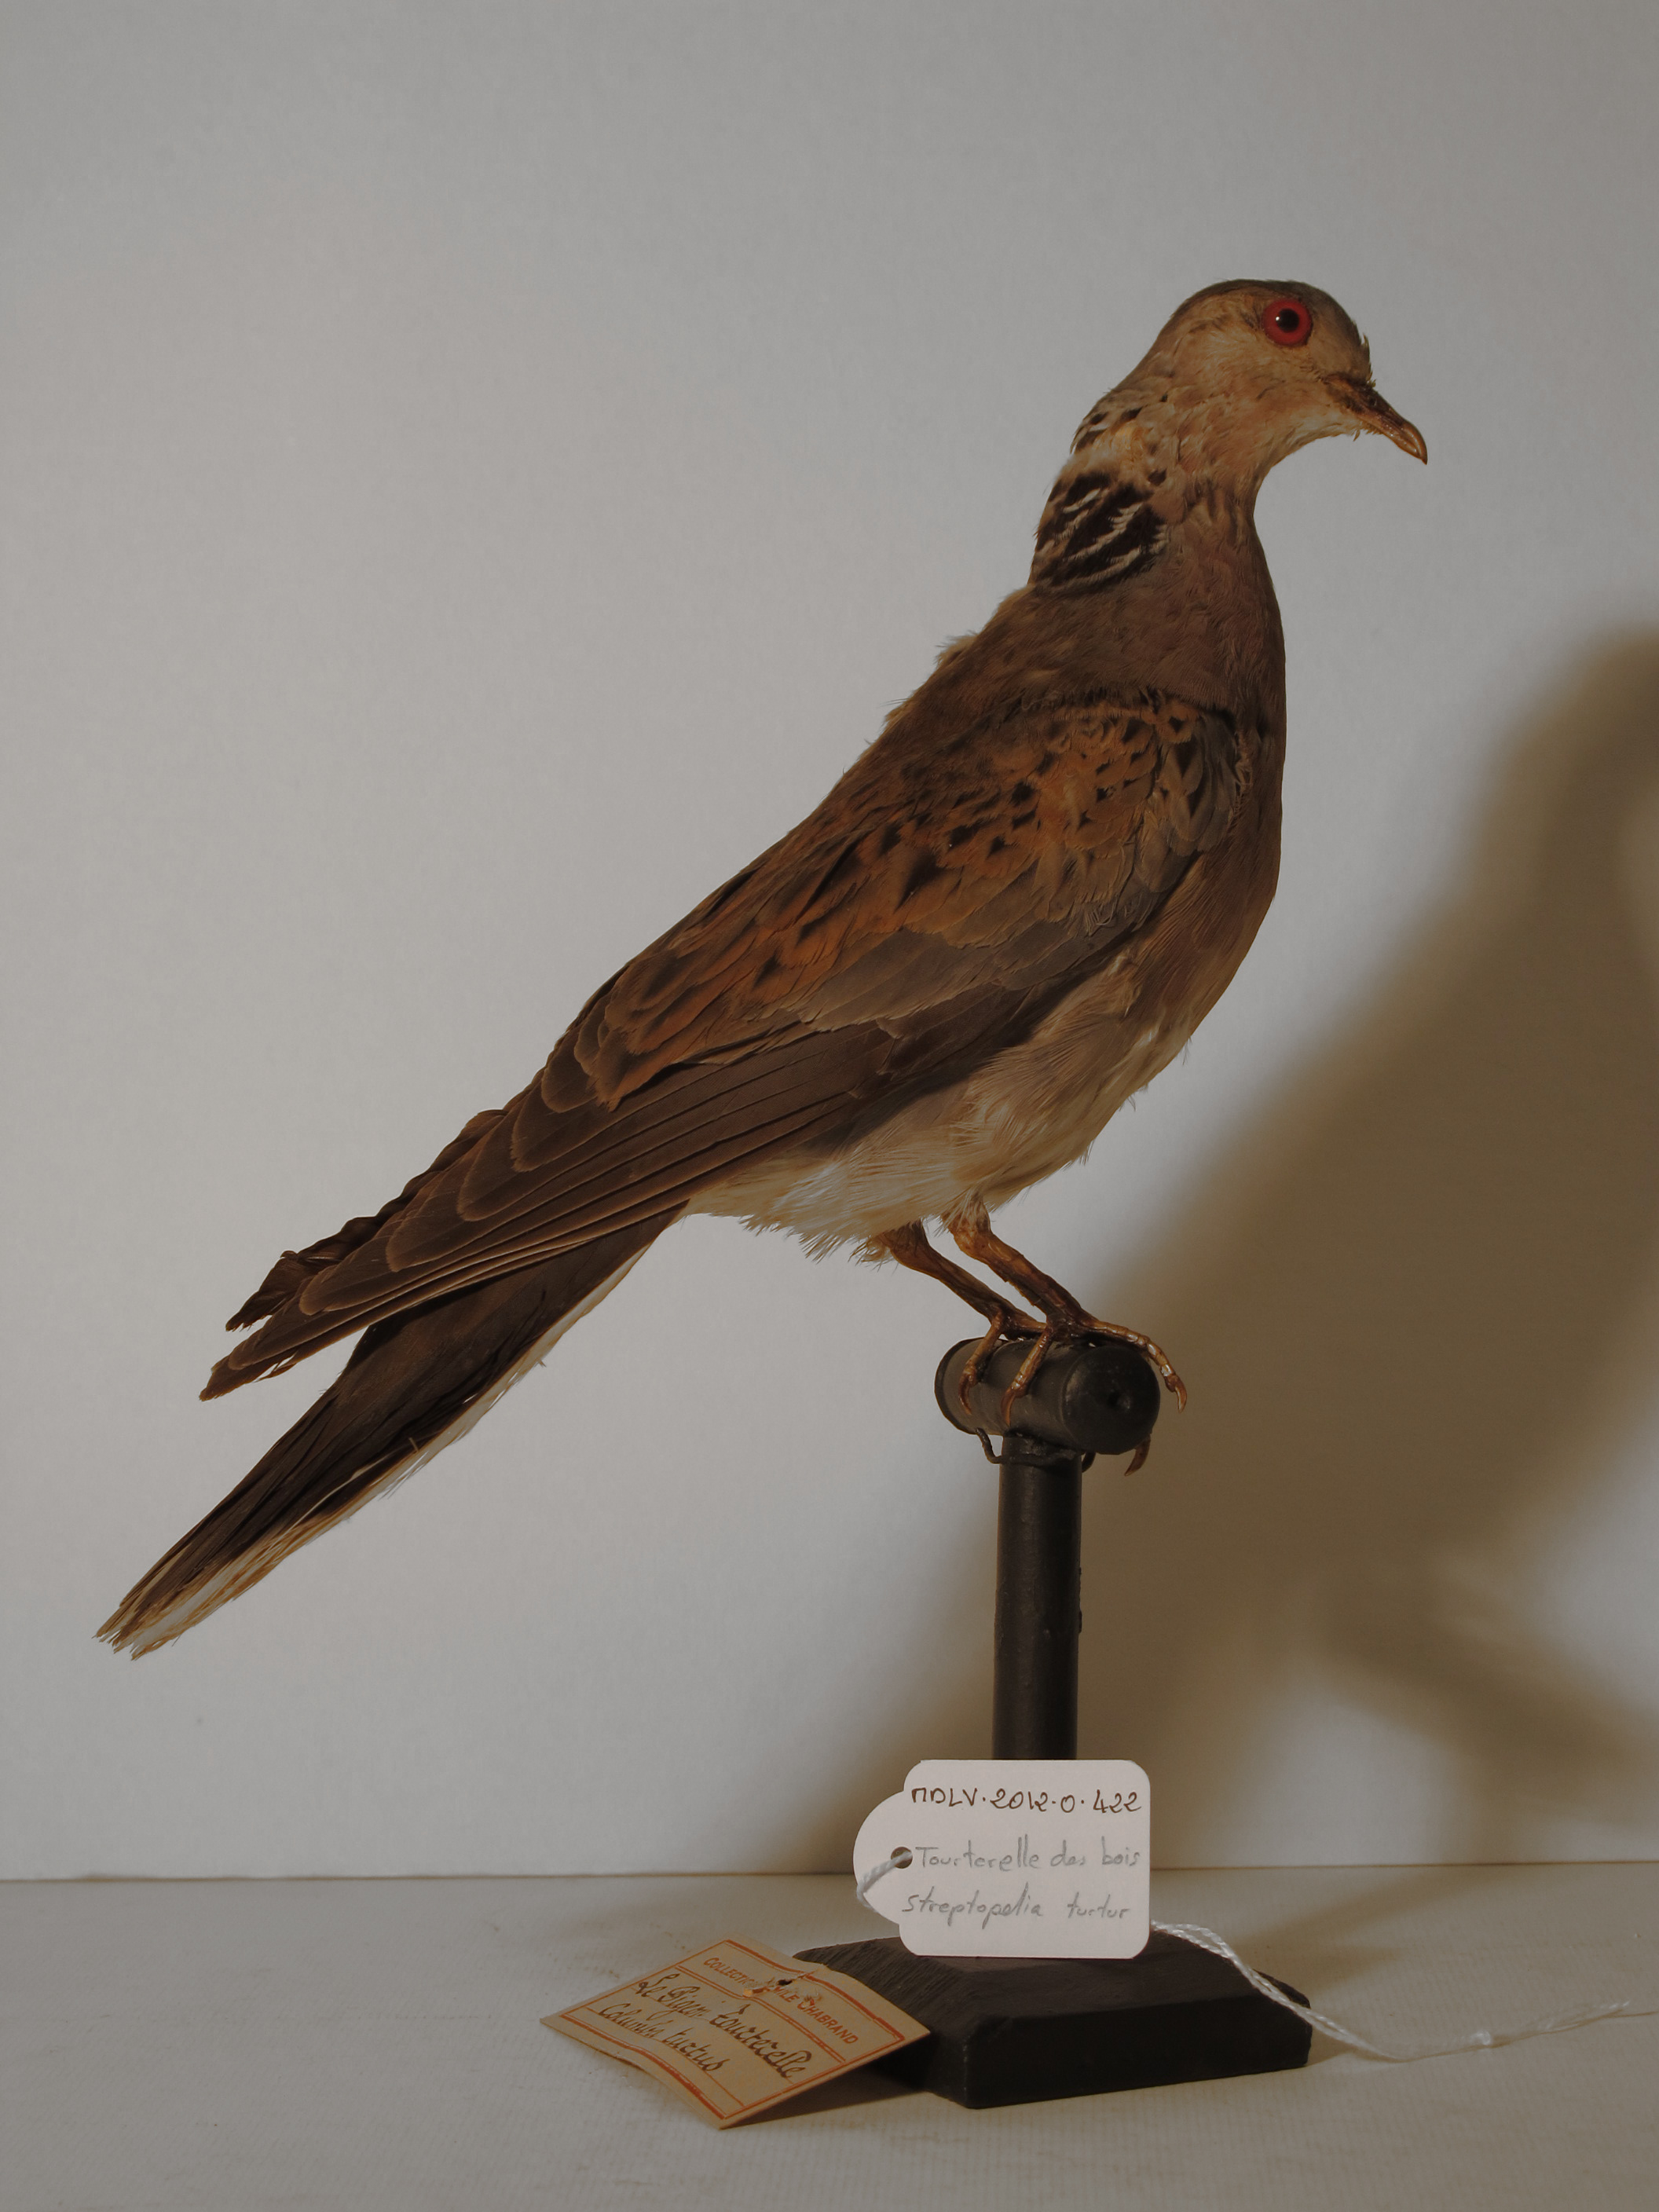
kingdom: Animalia
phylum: Chordata
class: Aves
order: Columbiformes
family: Columbidae
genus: Streptopelia
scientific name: Streptopelia turtur
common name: European Turtle-dove
